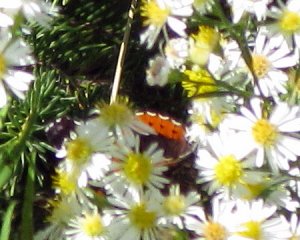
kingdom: Animalia
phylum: Arthropoda
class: Insecta
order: Lepidoptera
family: Nymphalidae
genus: Vanessa
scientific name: Vanessa atalanta
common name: Red Admiral
